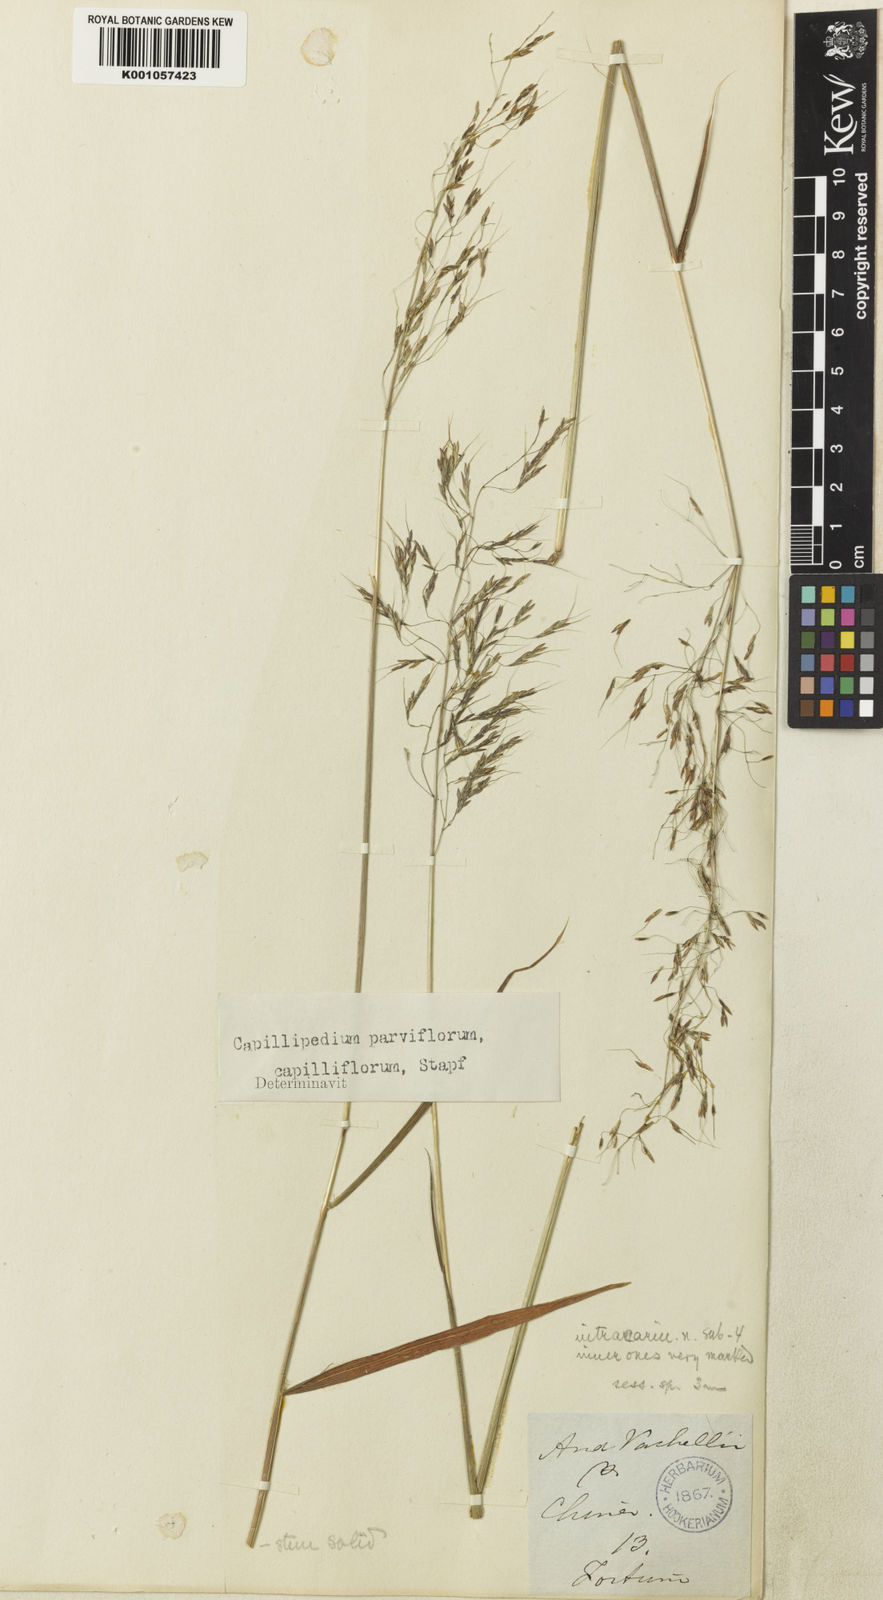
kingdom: Plantae
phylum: Tracheophyta
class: Liliopsida
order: Poales
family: Poaceae
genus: Capillipedium
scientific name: Capillipedium parviflorum
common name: Golden-beard
